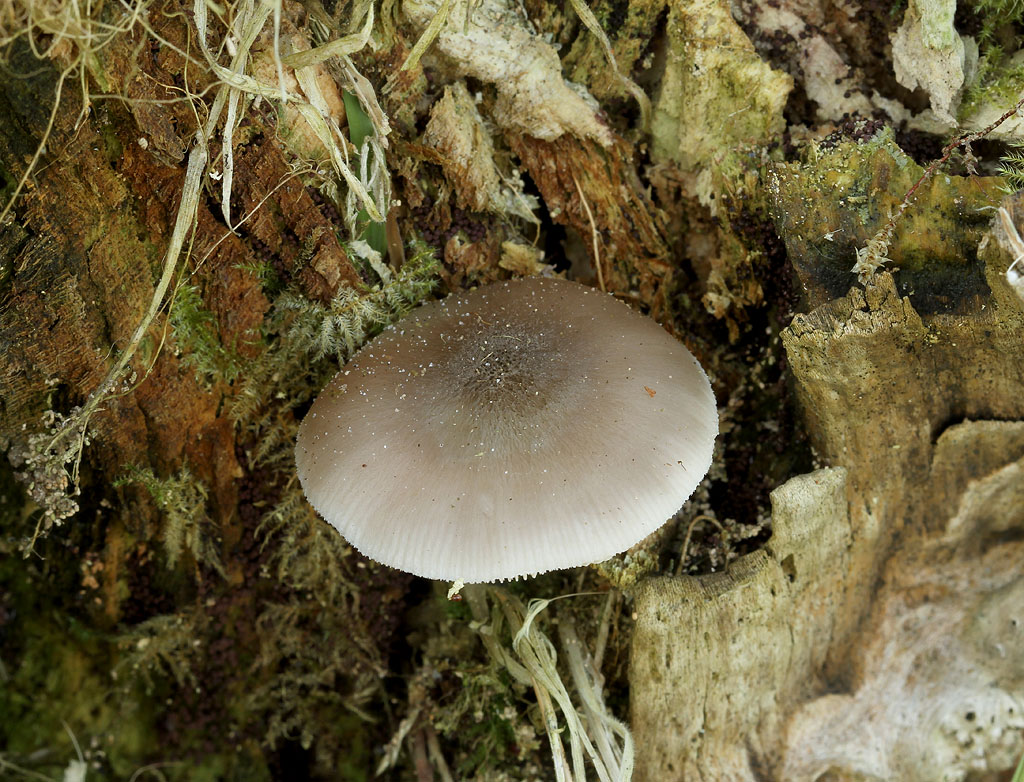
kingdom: Fungi
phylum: Basidiomycota
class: Agaricomycetes
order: Agaricales
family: Pluteaceae
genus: Pluteus
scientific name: Pluteus salicinus
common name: stiv skærmhat
